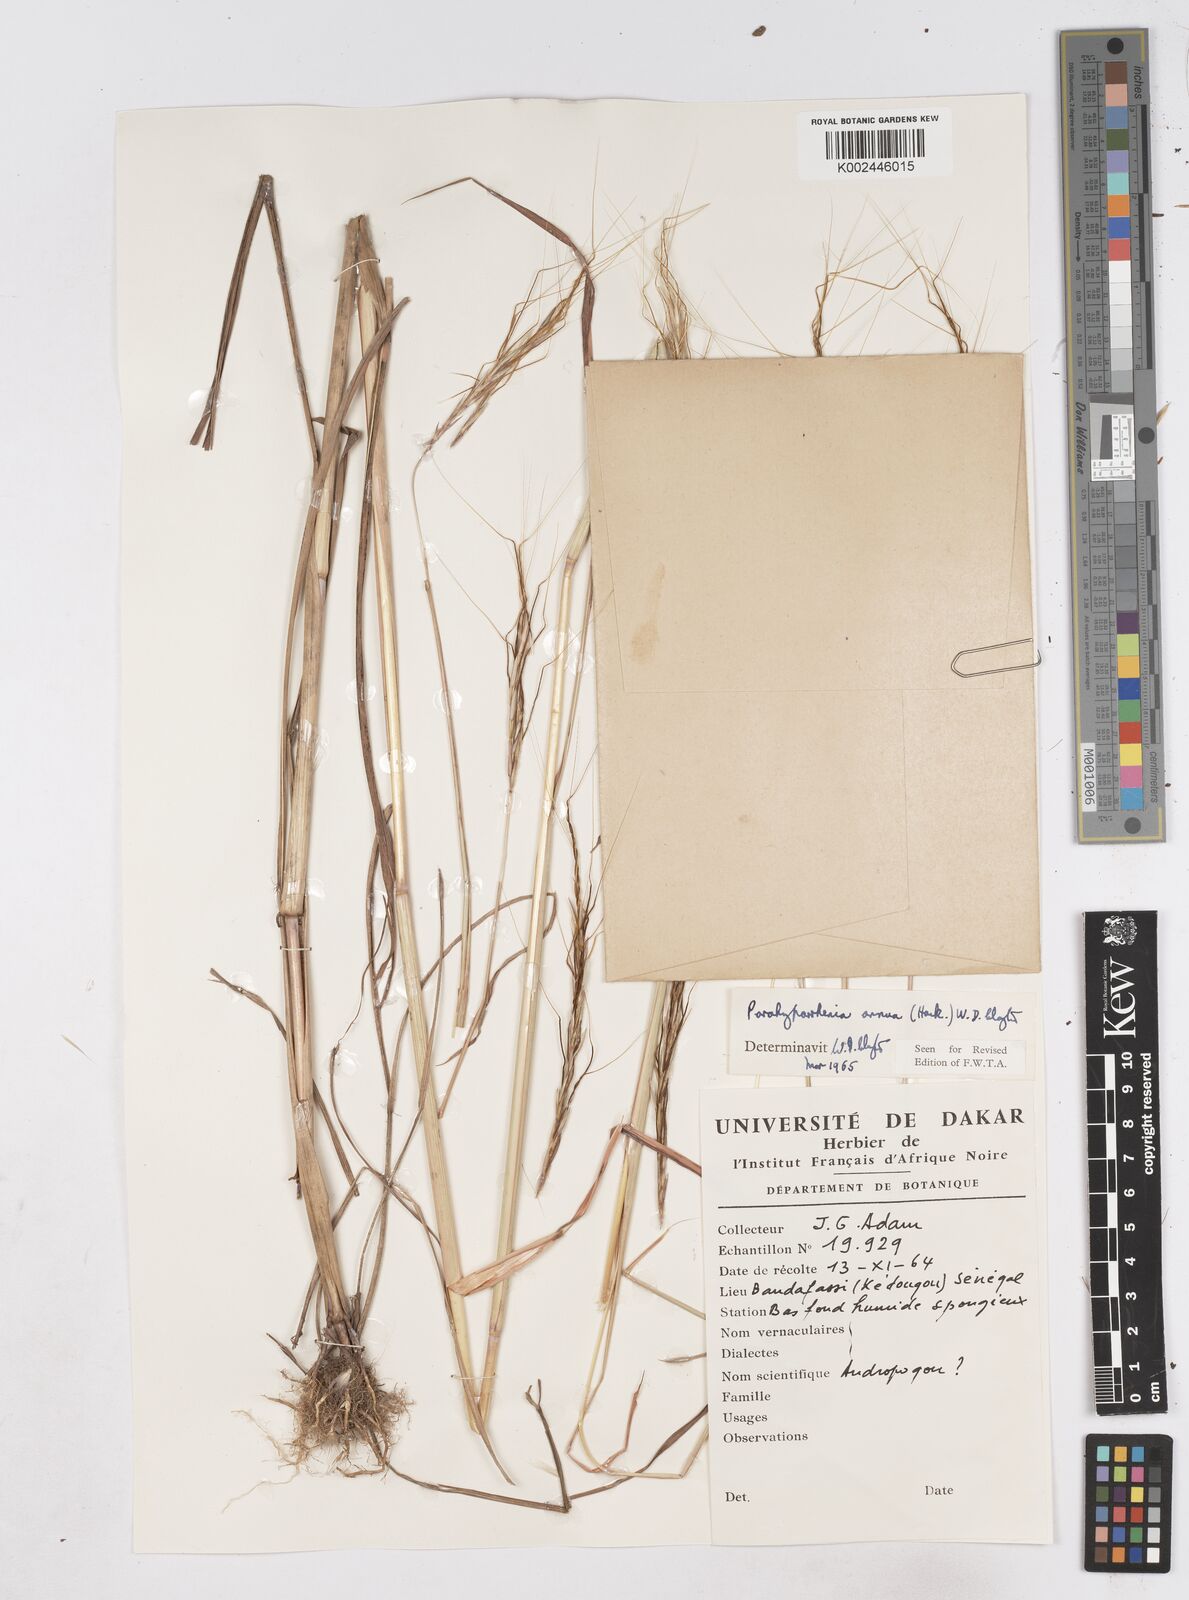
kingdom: Plantae
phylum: Tracheophyta
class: Liliopsida
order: Poales
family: Poaceae
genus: Parahyparrhenia
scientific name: Parahyparrhenia annua
